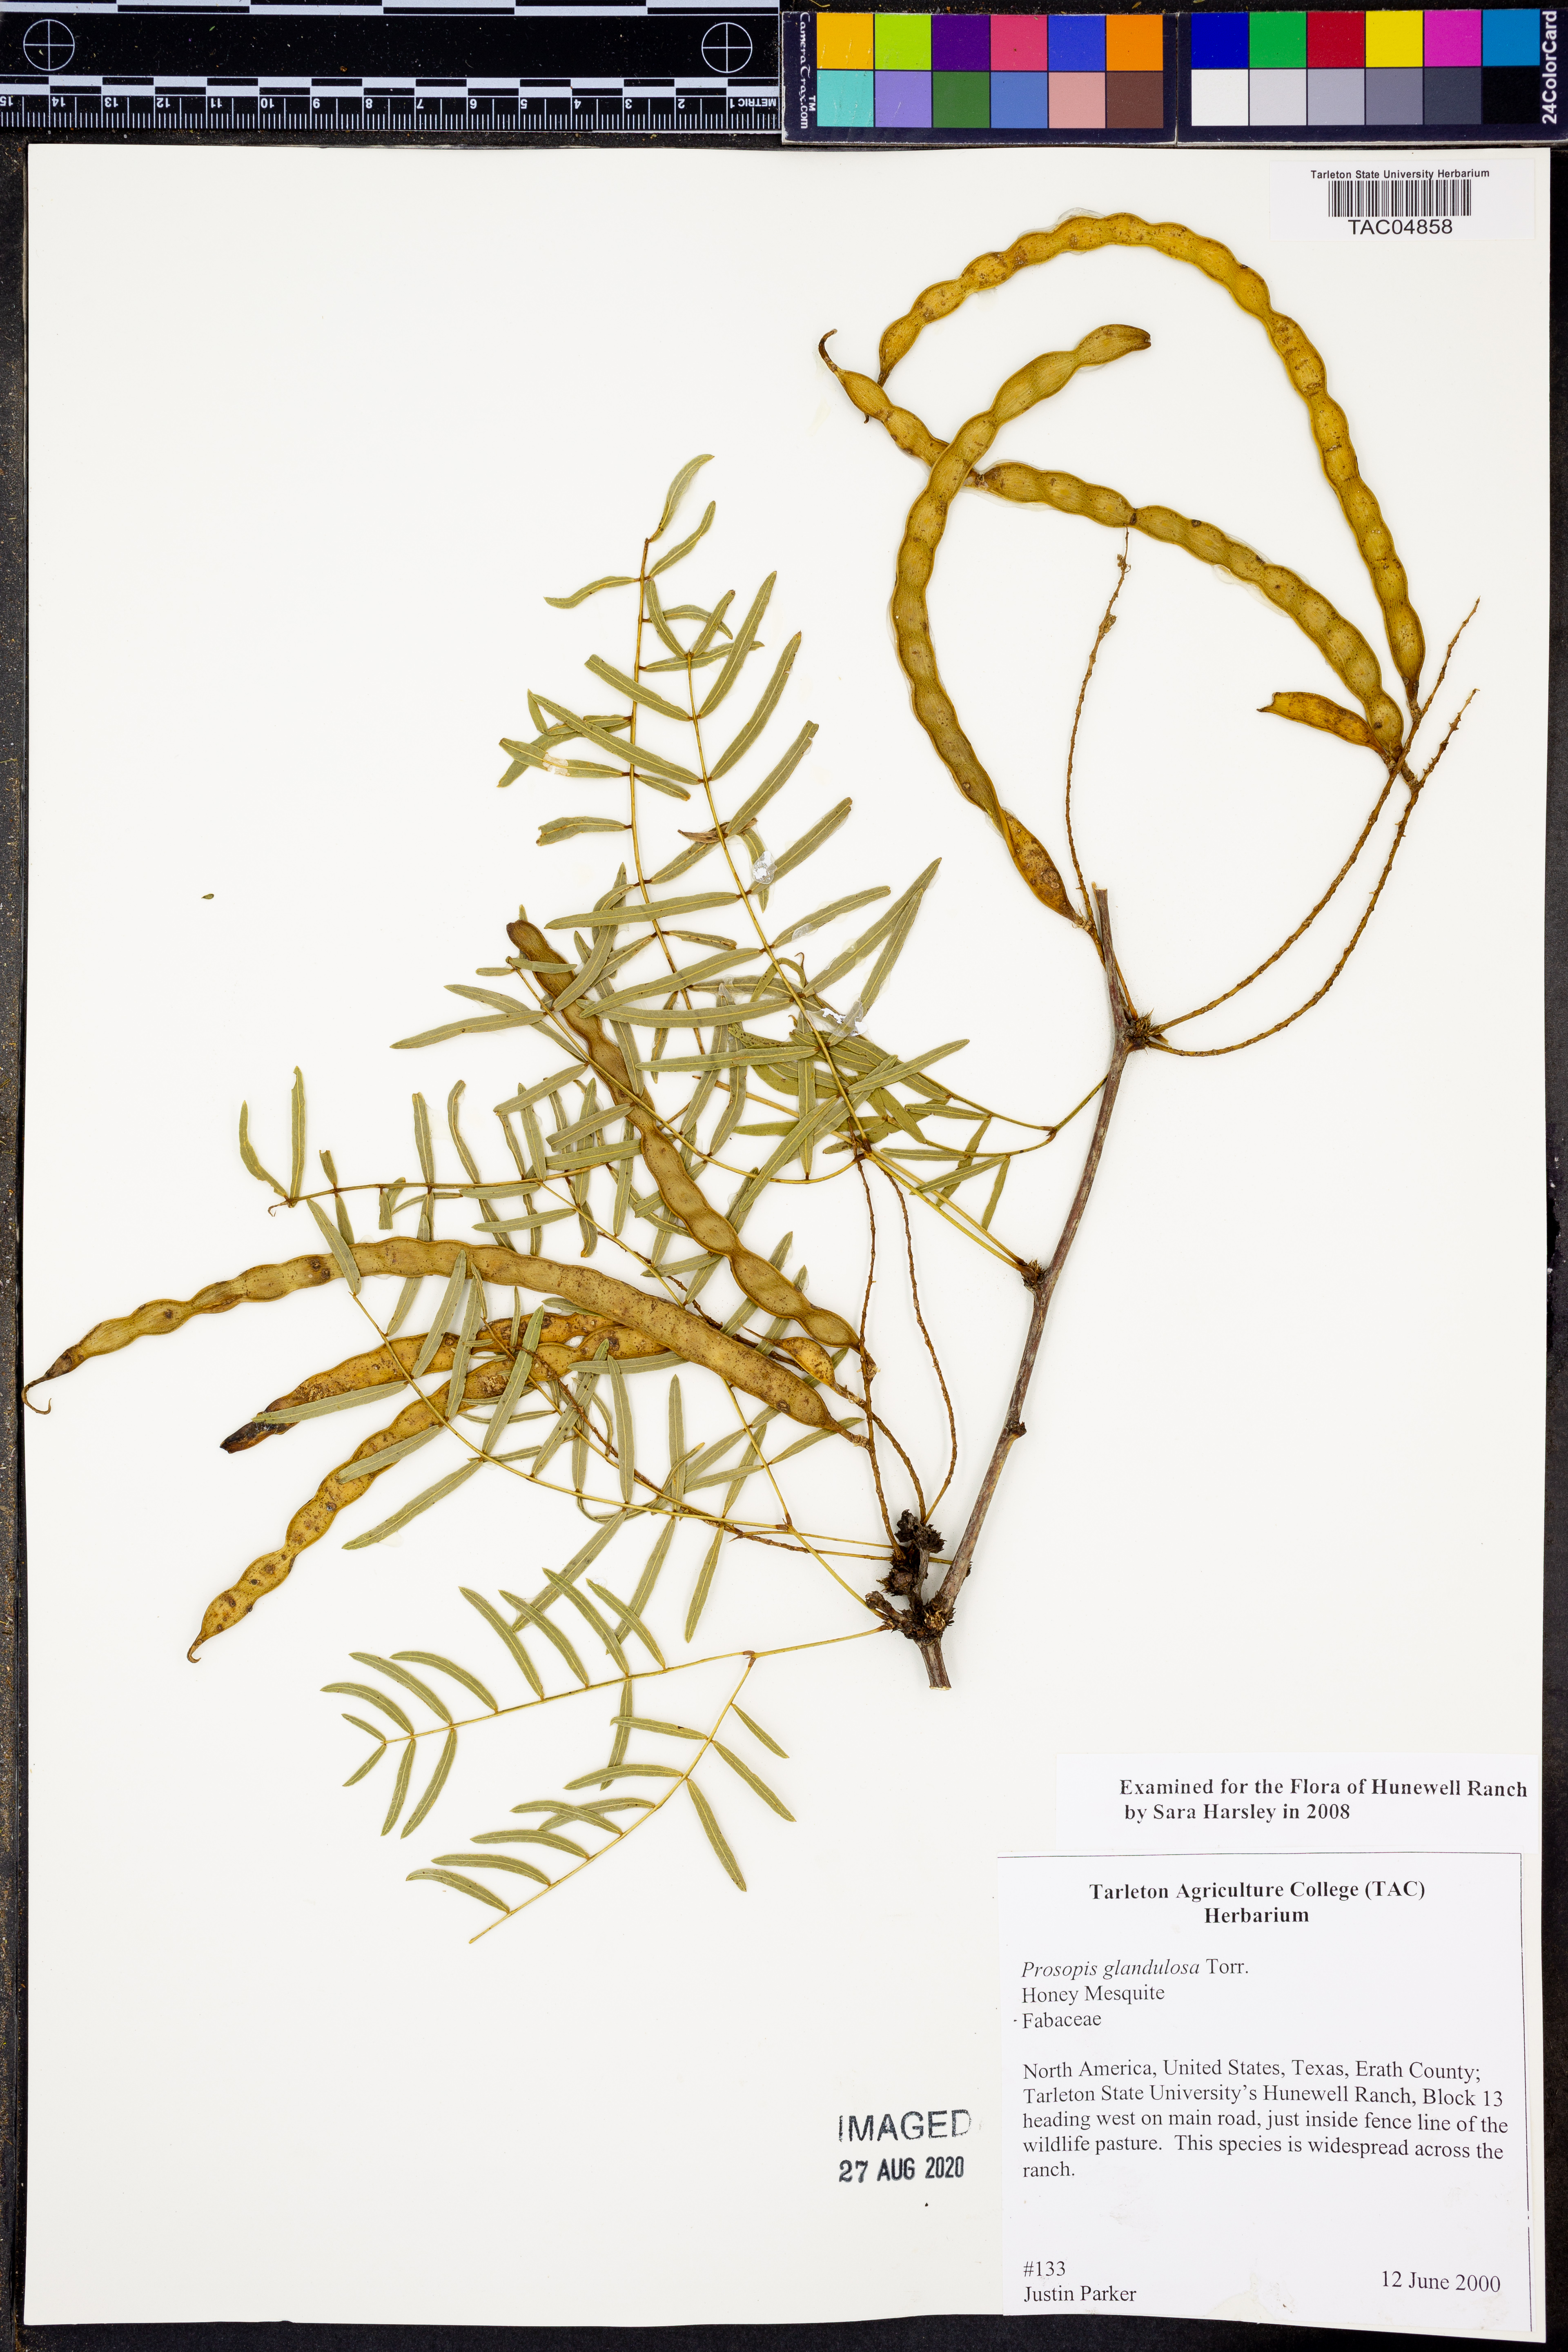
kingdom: Plantae
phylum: Tracheophyta
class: Magnoliopsida
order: Fabales
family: Fabaceae
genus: Prosopis
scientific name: Prosopis glandulosa
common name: Honey mesquite
